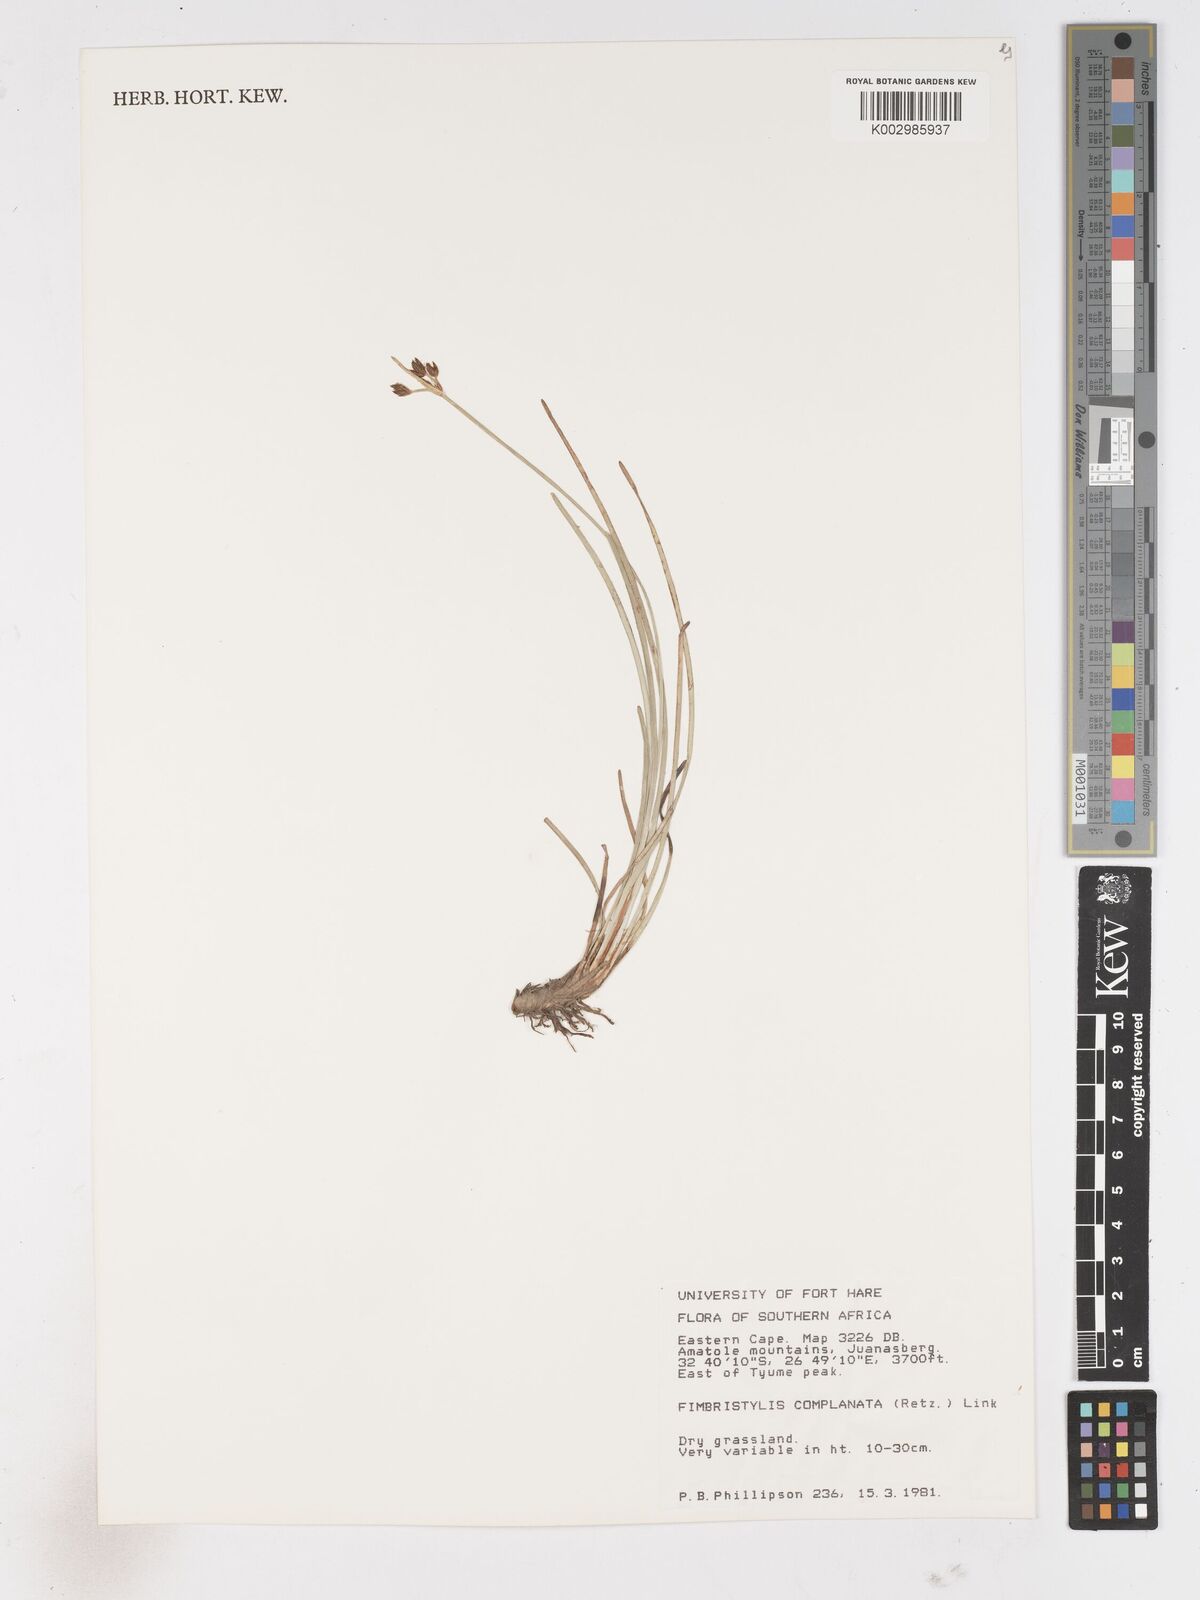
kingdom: Plantae
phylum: Tracheophyta
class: Liliopsida
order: Poales
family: Cyperaceae
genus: Fimbristylis
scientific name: Fimbristylis complanata
